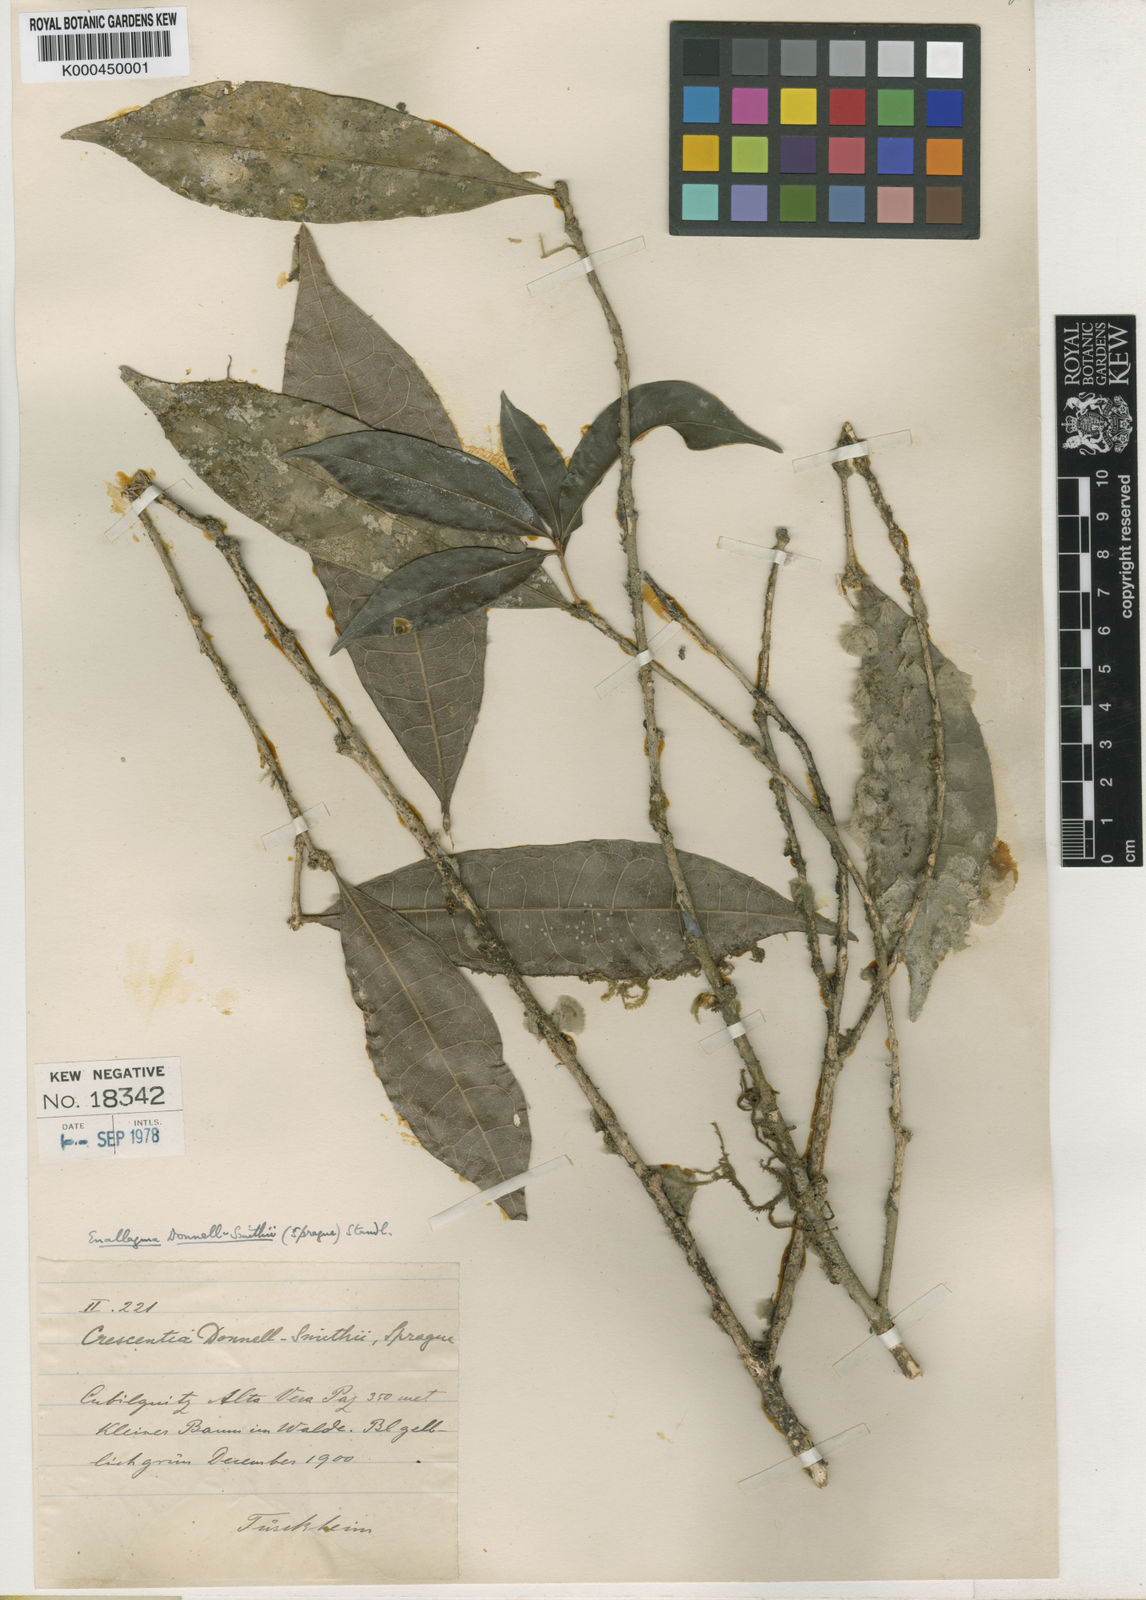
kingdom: Plantae
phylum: Tracheophyta
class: Magnoliopsida
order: Lamiales
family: Bignoniaceae
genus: Amphitecna
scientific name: Amphitecna donnell-smithii
